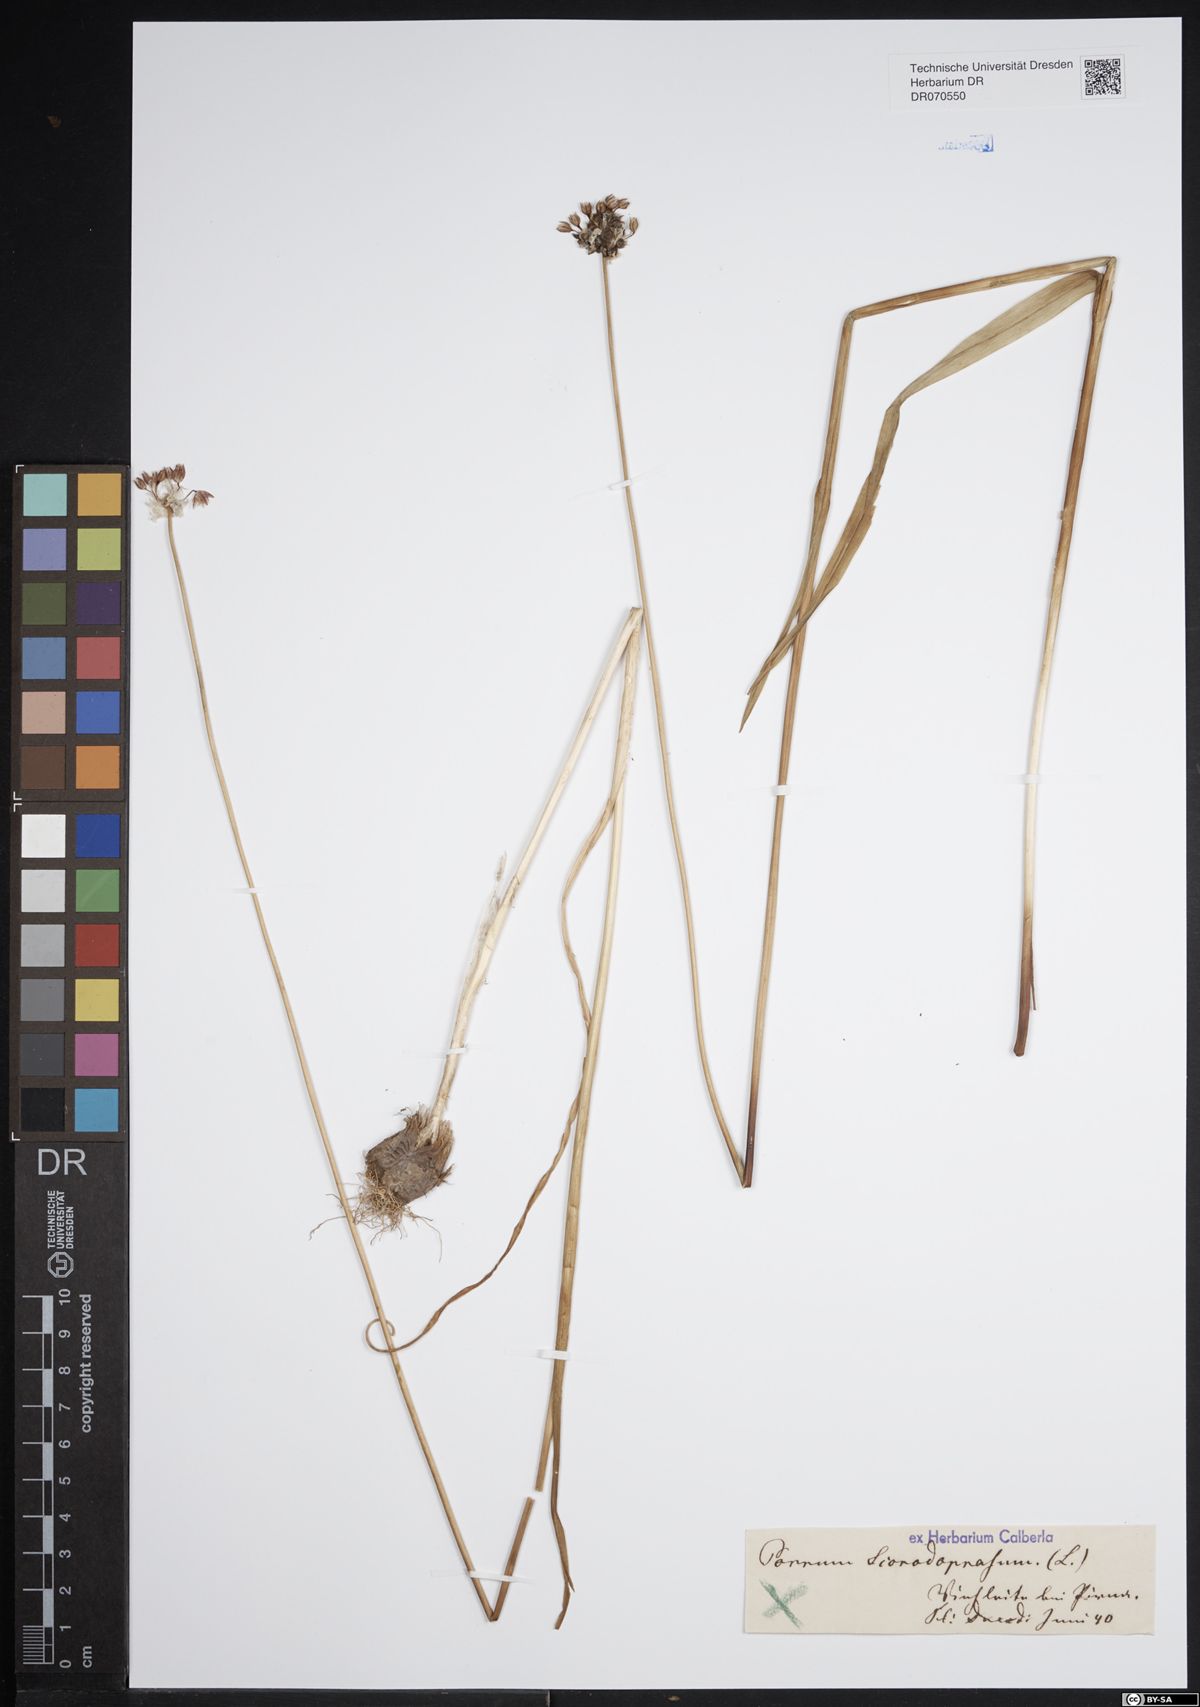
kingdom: Plantae
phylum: Tracheophyta
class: Liliopsida
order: Asparagales
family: Amaryllidaceae
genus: Allium
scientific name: Allium scorodoprasum
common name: Sand leek
